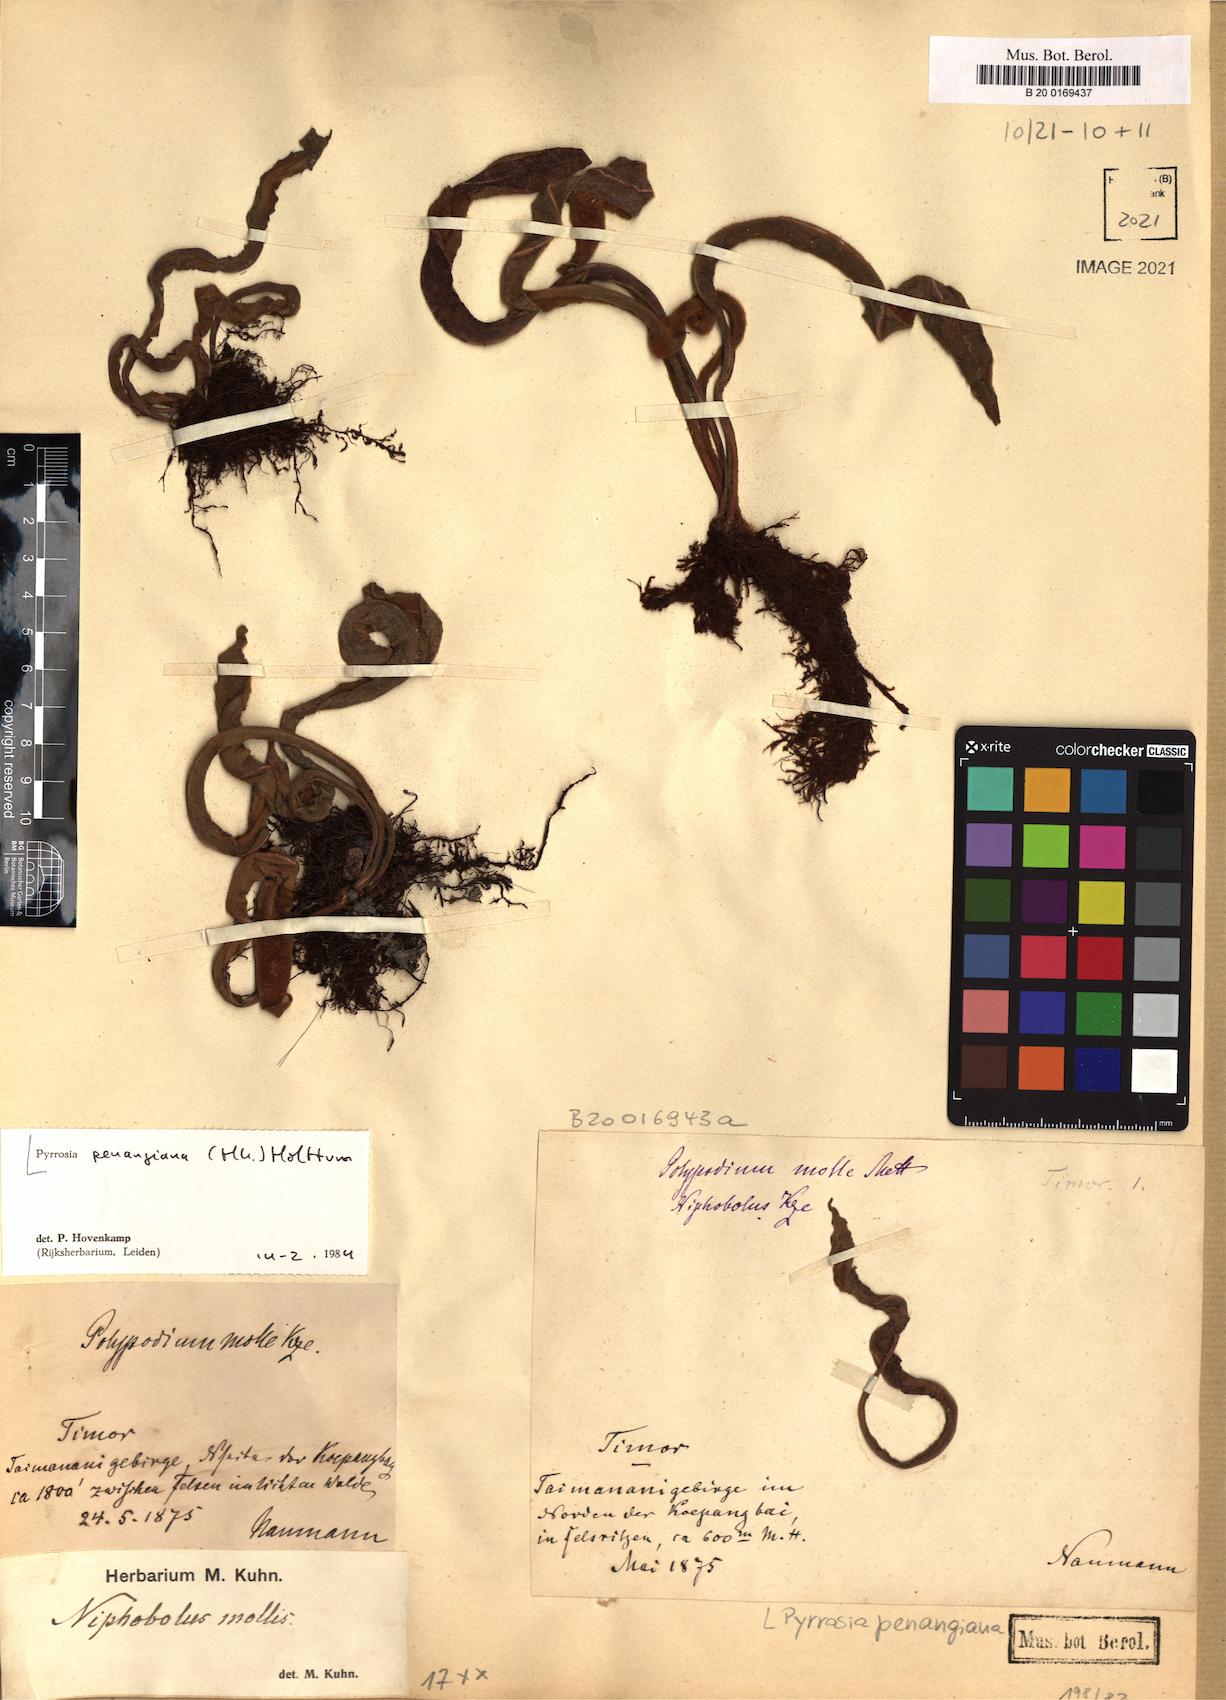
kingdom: Plantae
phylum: Tracheophyta
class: Polypodiopsida
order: Polypodiales
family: Polypodiaceae
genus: Pyrrosia
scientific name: Pyrrosia penangiana
